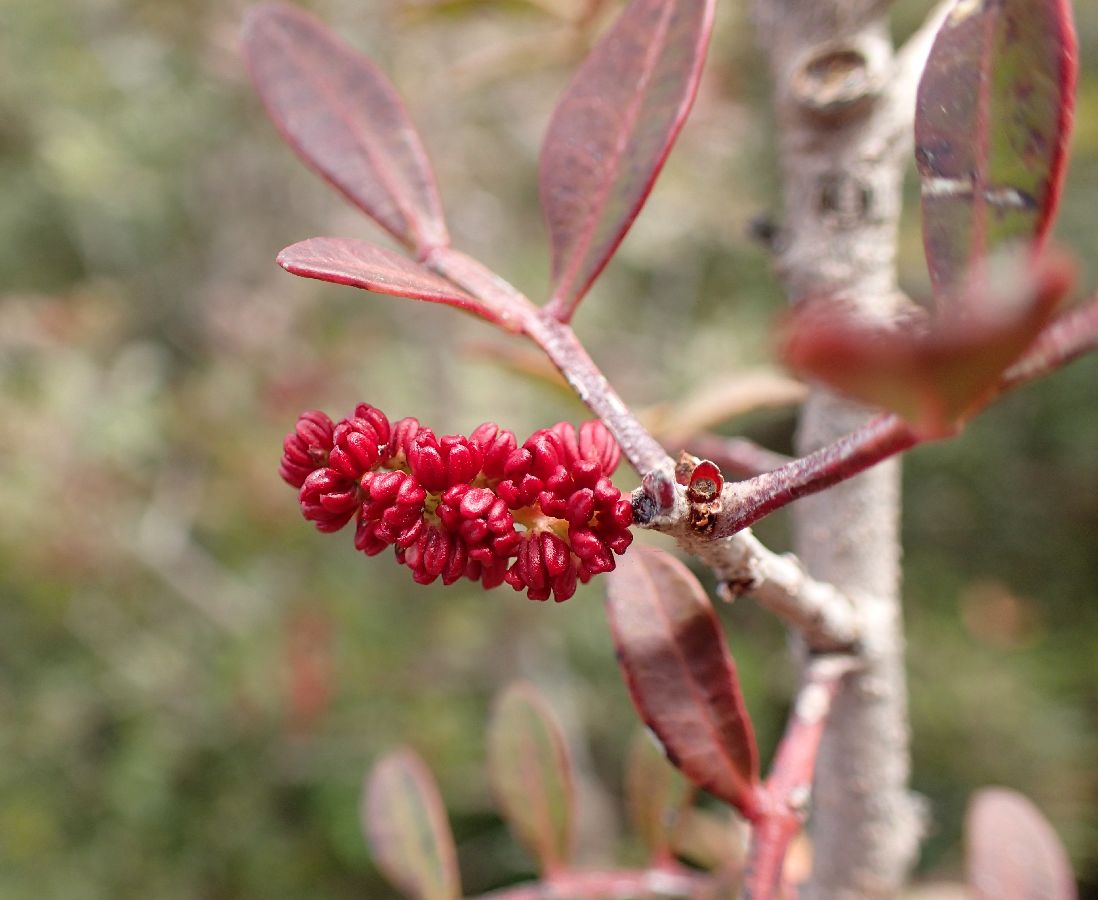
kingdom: Plantae
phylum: Tracheophyta
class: Magnoliopsida
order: Sapindales
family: Anacardiaceae
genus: Pistacia
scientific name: Pistacia lentiscus
